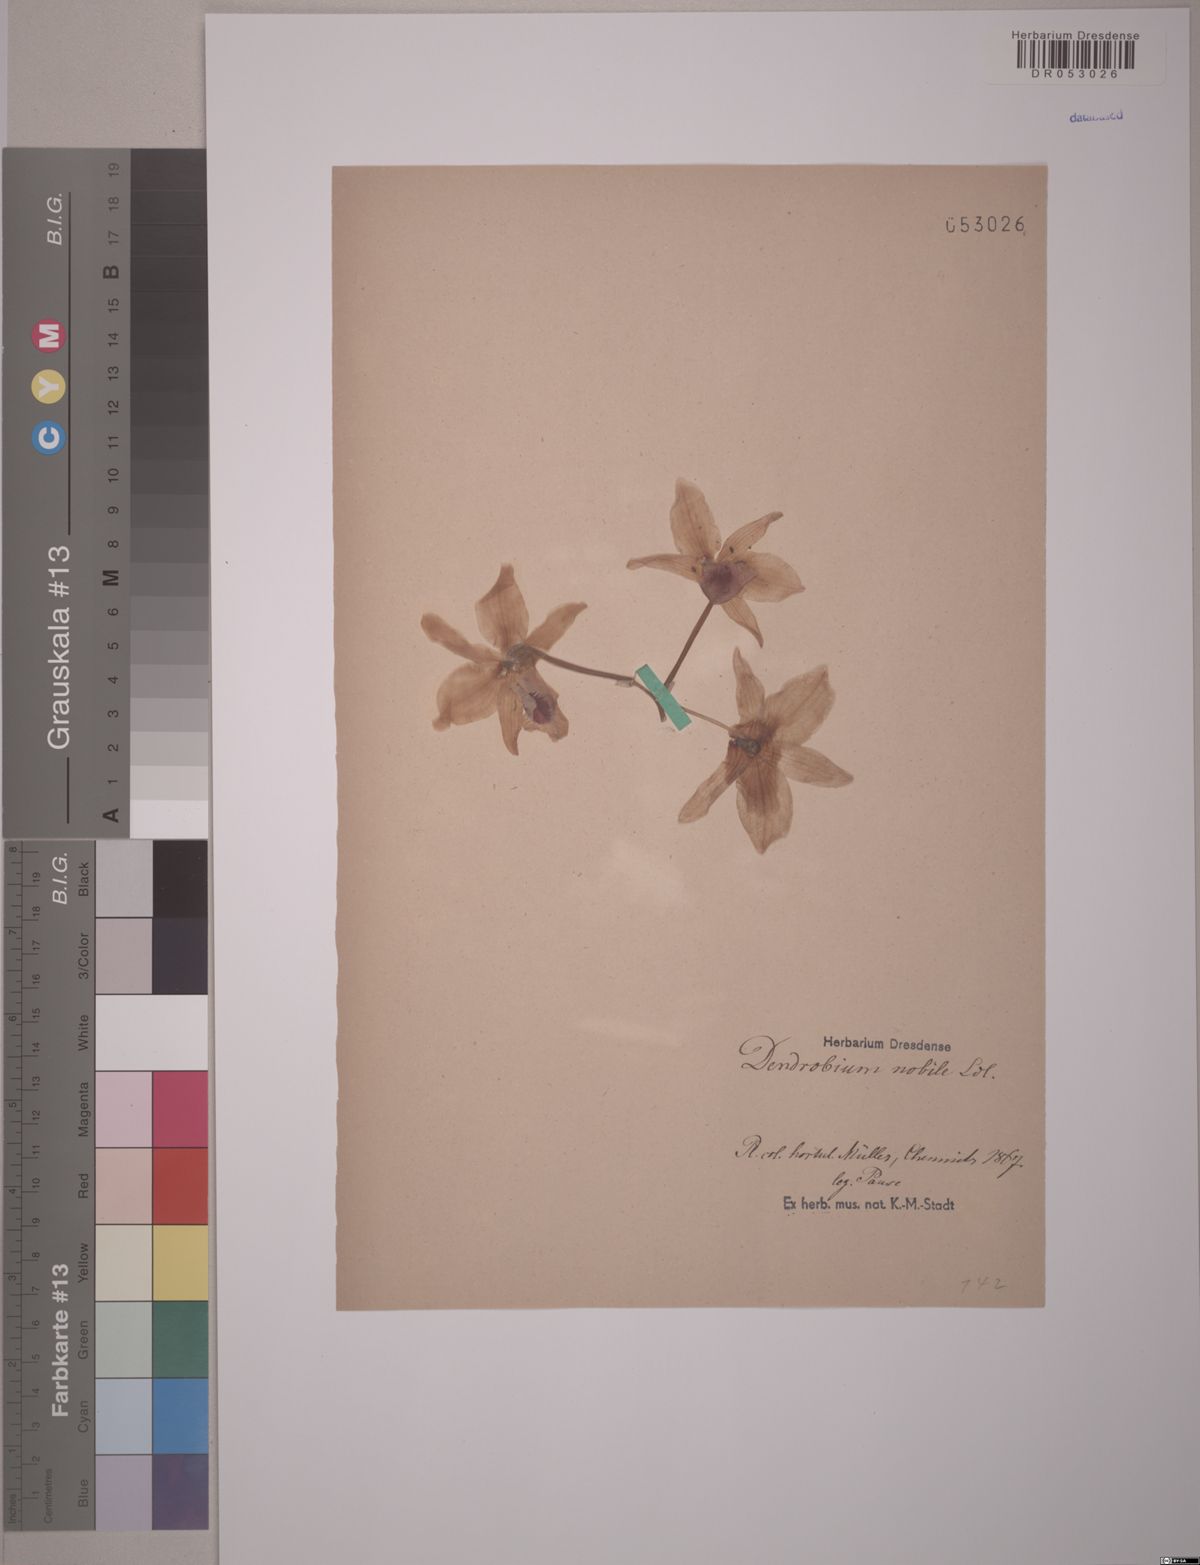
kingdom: Plantae
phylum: Tracheophyta
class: Liliopsida
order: Asparagales
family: Orchidaceae
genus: Dendrobium
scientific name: Dendrobium nobile
